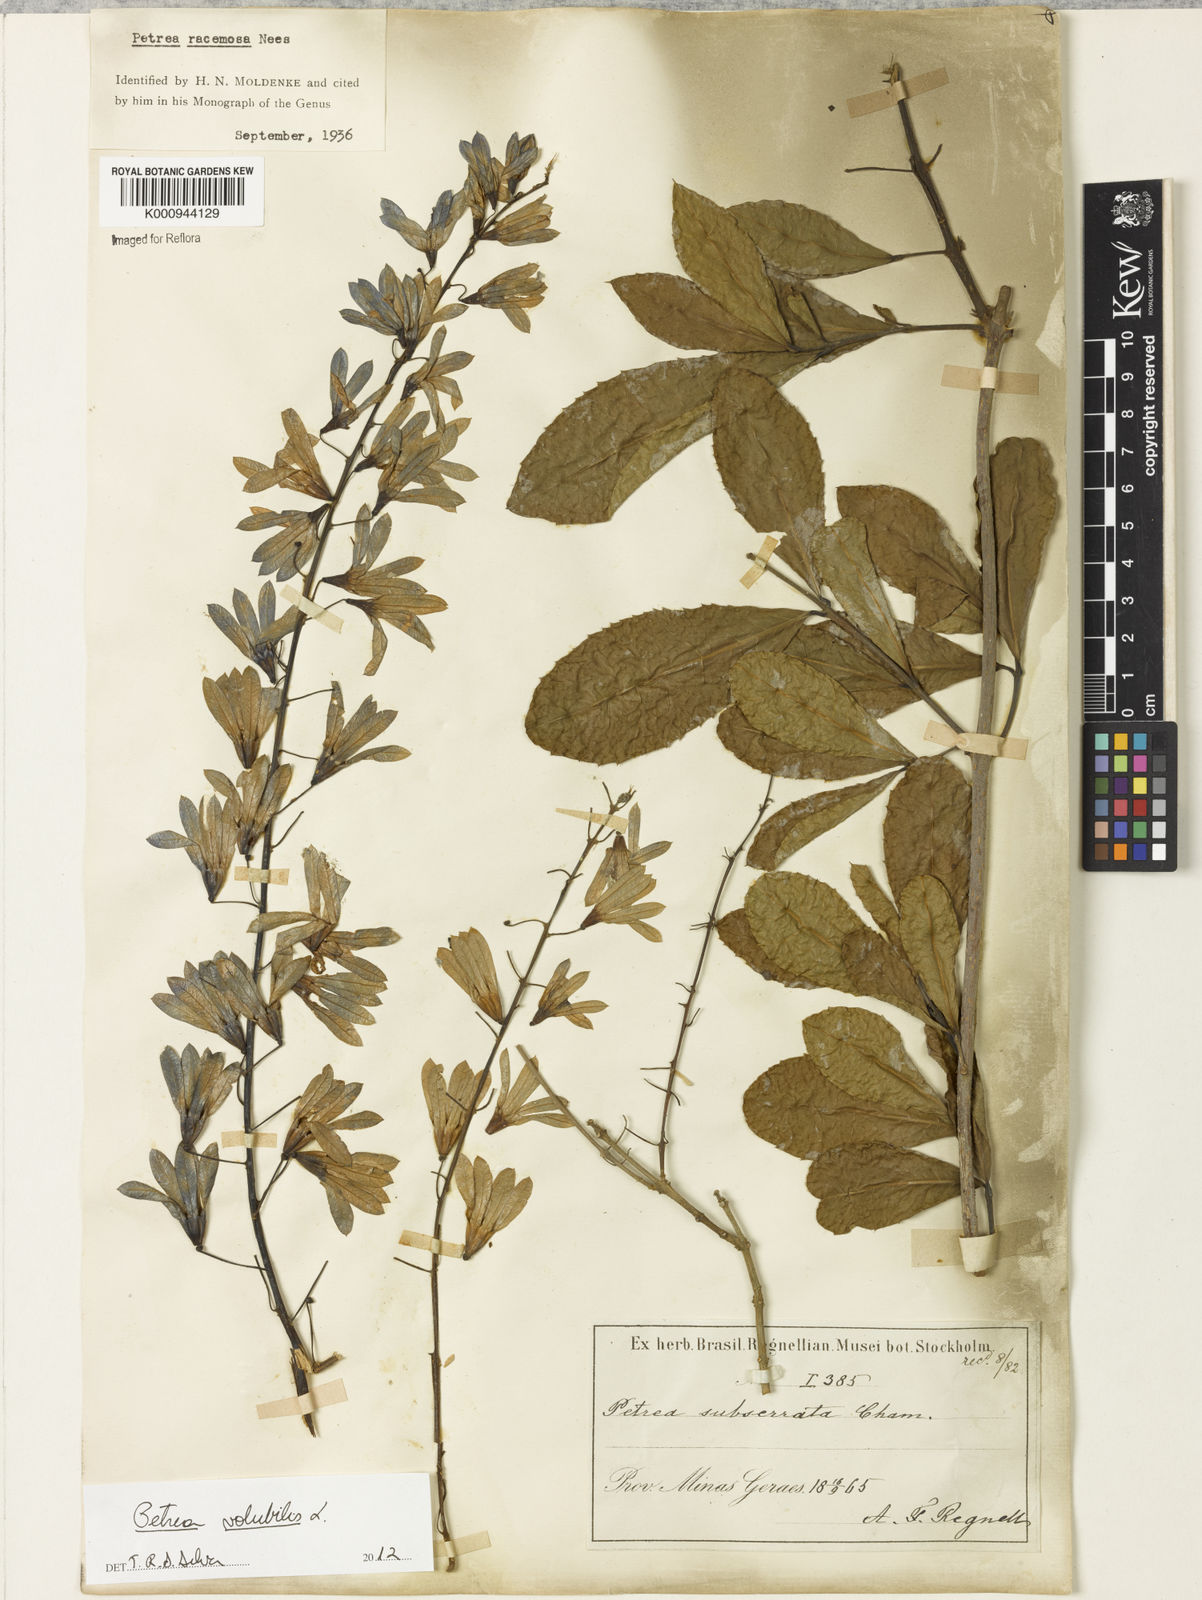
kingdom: Plantae
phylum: Tracheophyta
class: Magnoliopsida
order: Lamiales
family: Verbenaceae
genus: Petrea
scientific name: Petrea volubilis
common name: Queen's-wreath
